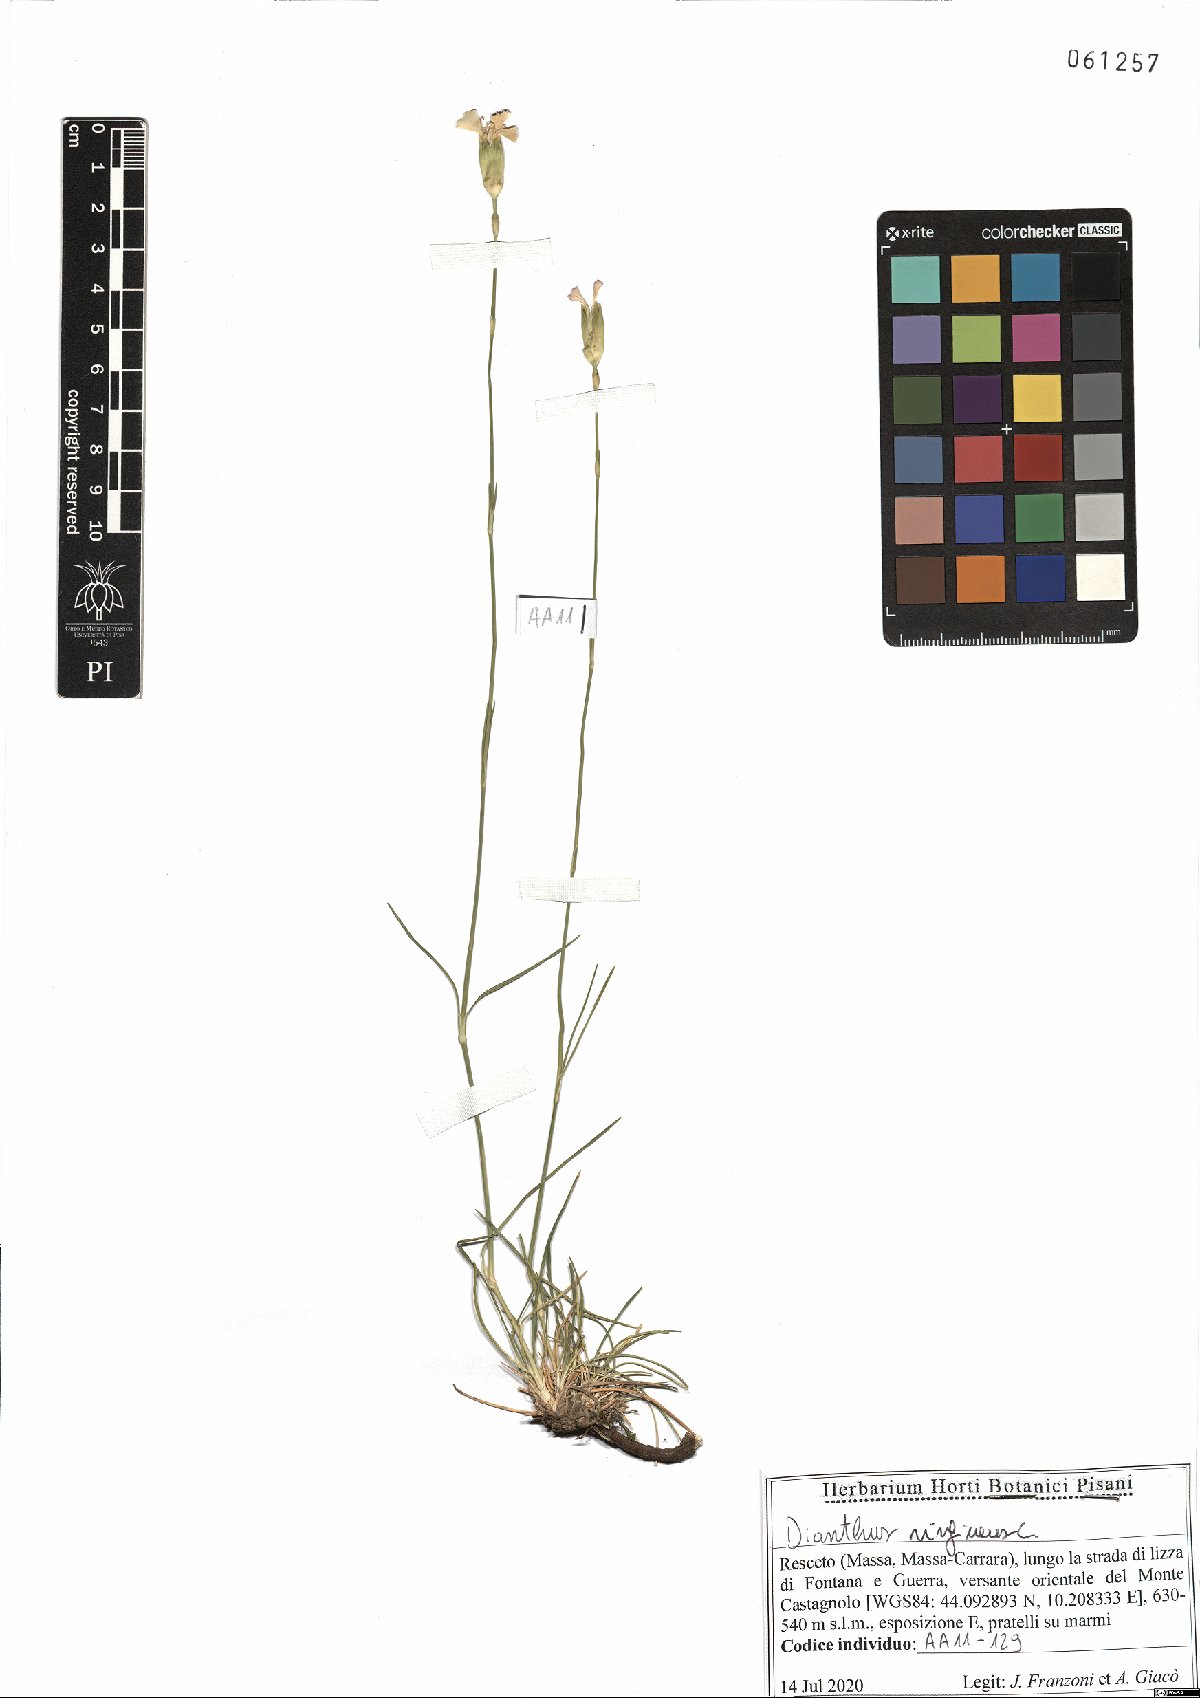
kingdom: Plantae
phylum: Tracheophyta
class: Magnoliopsida
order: Caryophyllales
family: Caryophyllaceae
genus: Dianthus
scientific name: Dianthus virgineus
